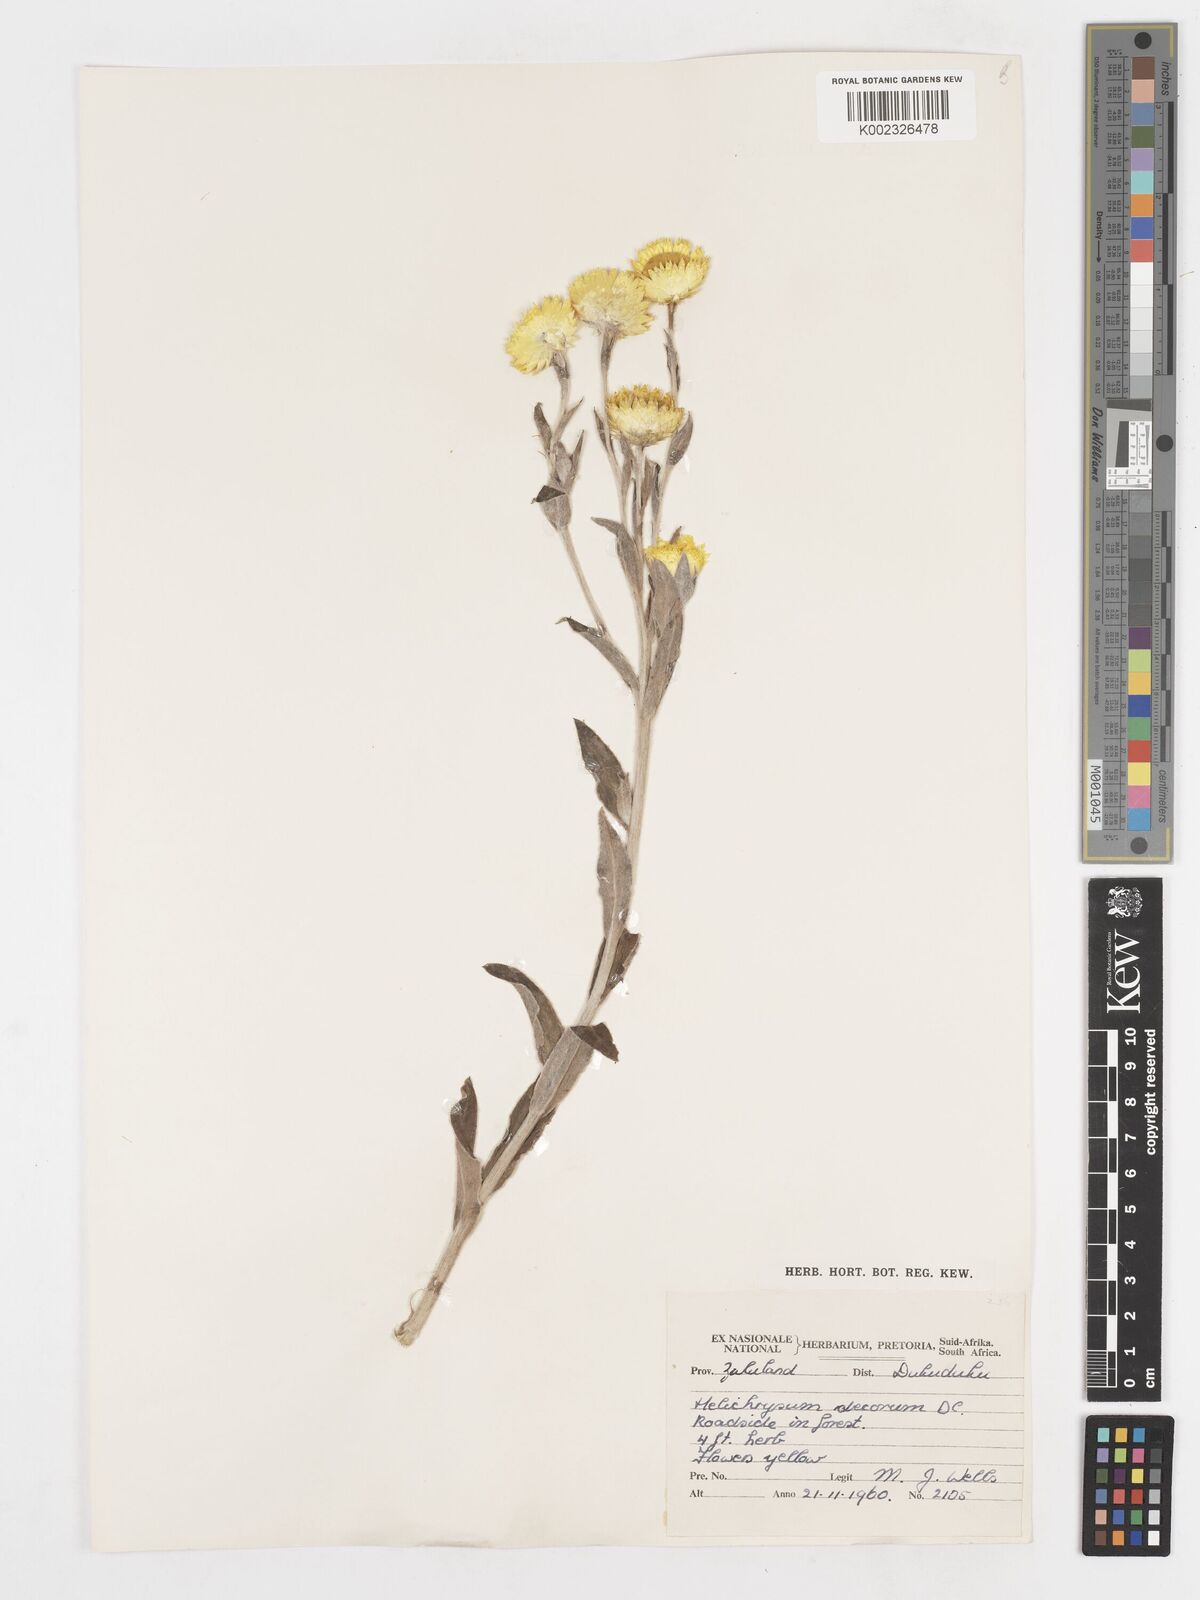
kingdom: Plantae
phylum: Tracheophyta
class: Magnoliopsida
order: Asterales
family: Asteraceae
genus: Helichrysum
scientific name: Helichrysum decorum
